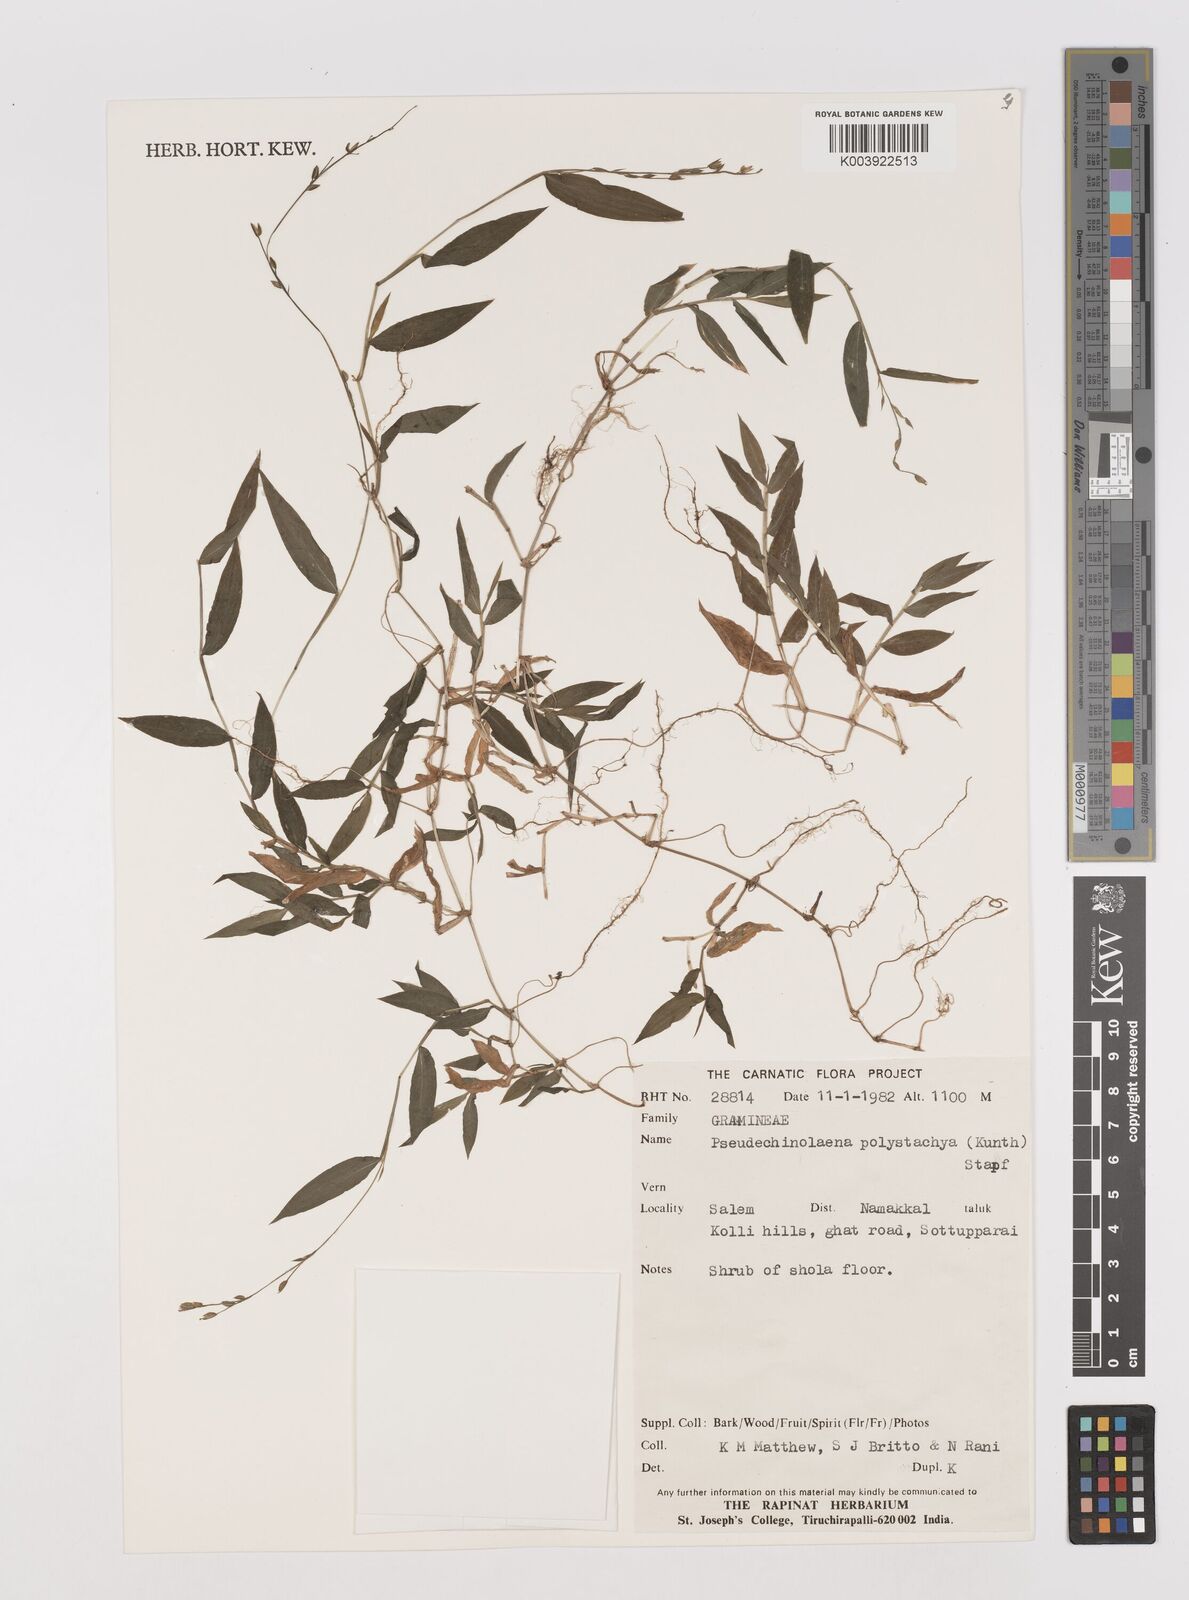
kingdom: Plantae
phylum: Tracheophyta
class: Liliopsida
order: Poales
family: Poaceae
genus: Pseudechinolaena
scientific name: Pseudechinolaena polystachya
